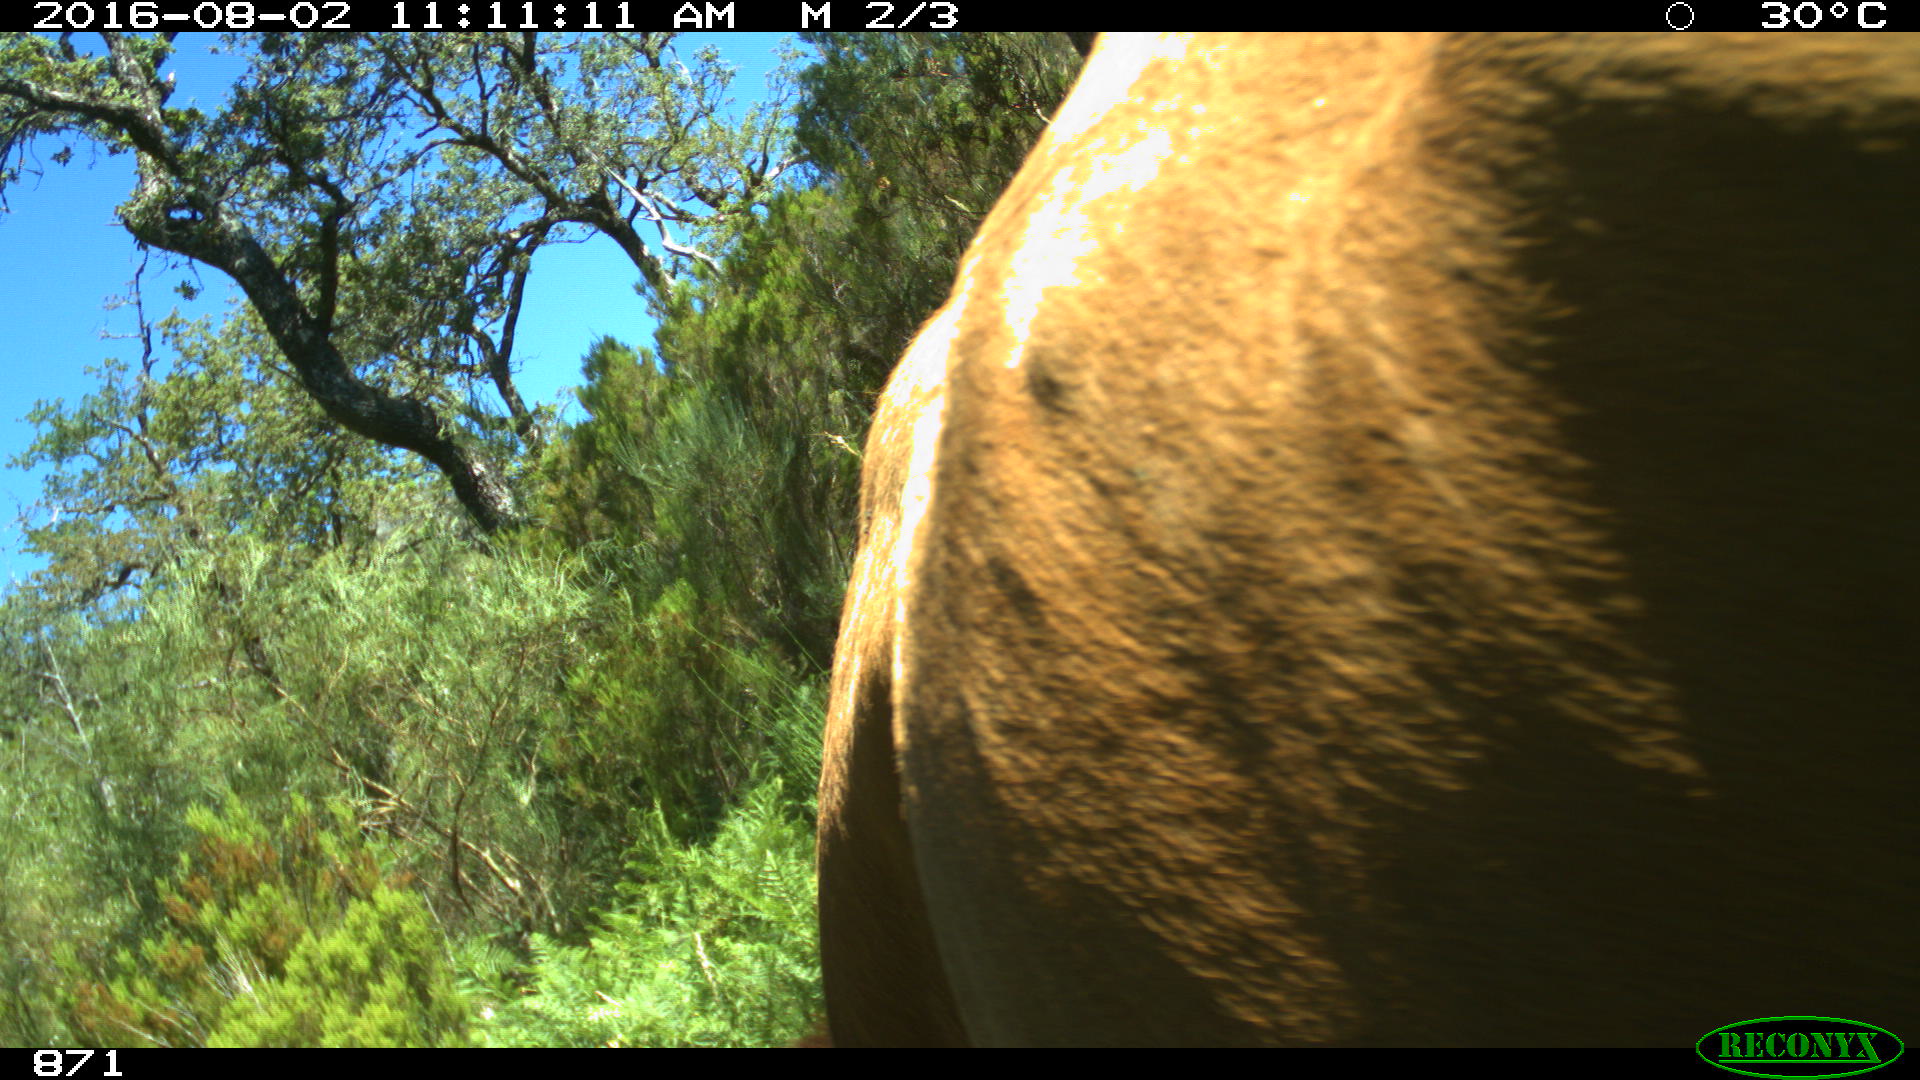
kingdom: Animalia
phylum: Chordata
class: Mammalia
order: Artiodactyla
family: Bovidae
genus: Bos
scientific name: Bos taurus
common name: Domesticated cattle
